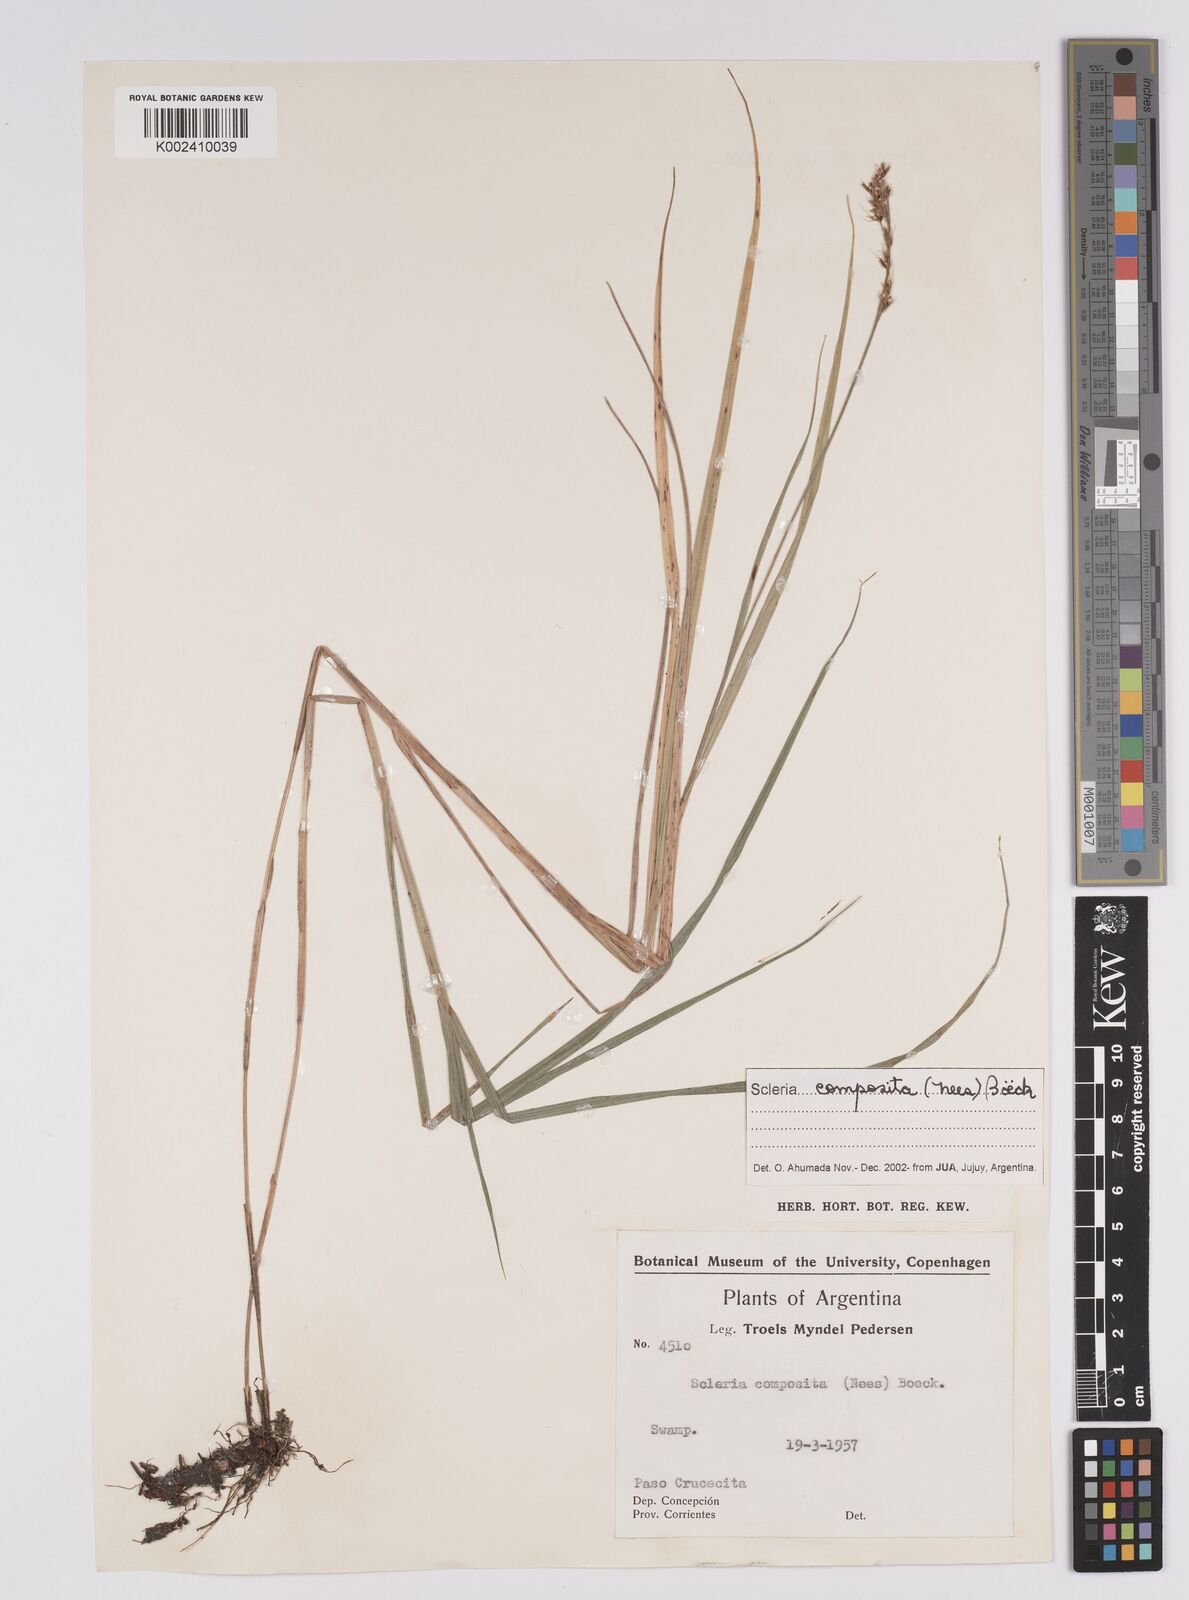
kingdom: Plantae
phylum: Tracheophyta
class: Liliopsida
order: Poales
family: Cyperaceae
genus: Scleria
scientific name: Scleria composita
